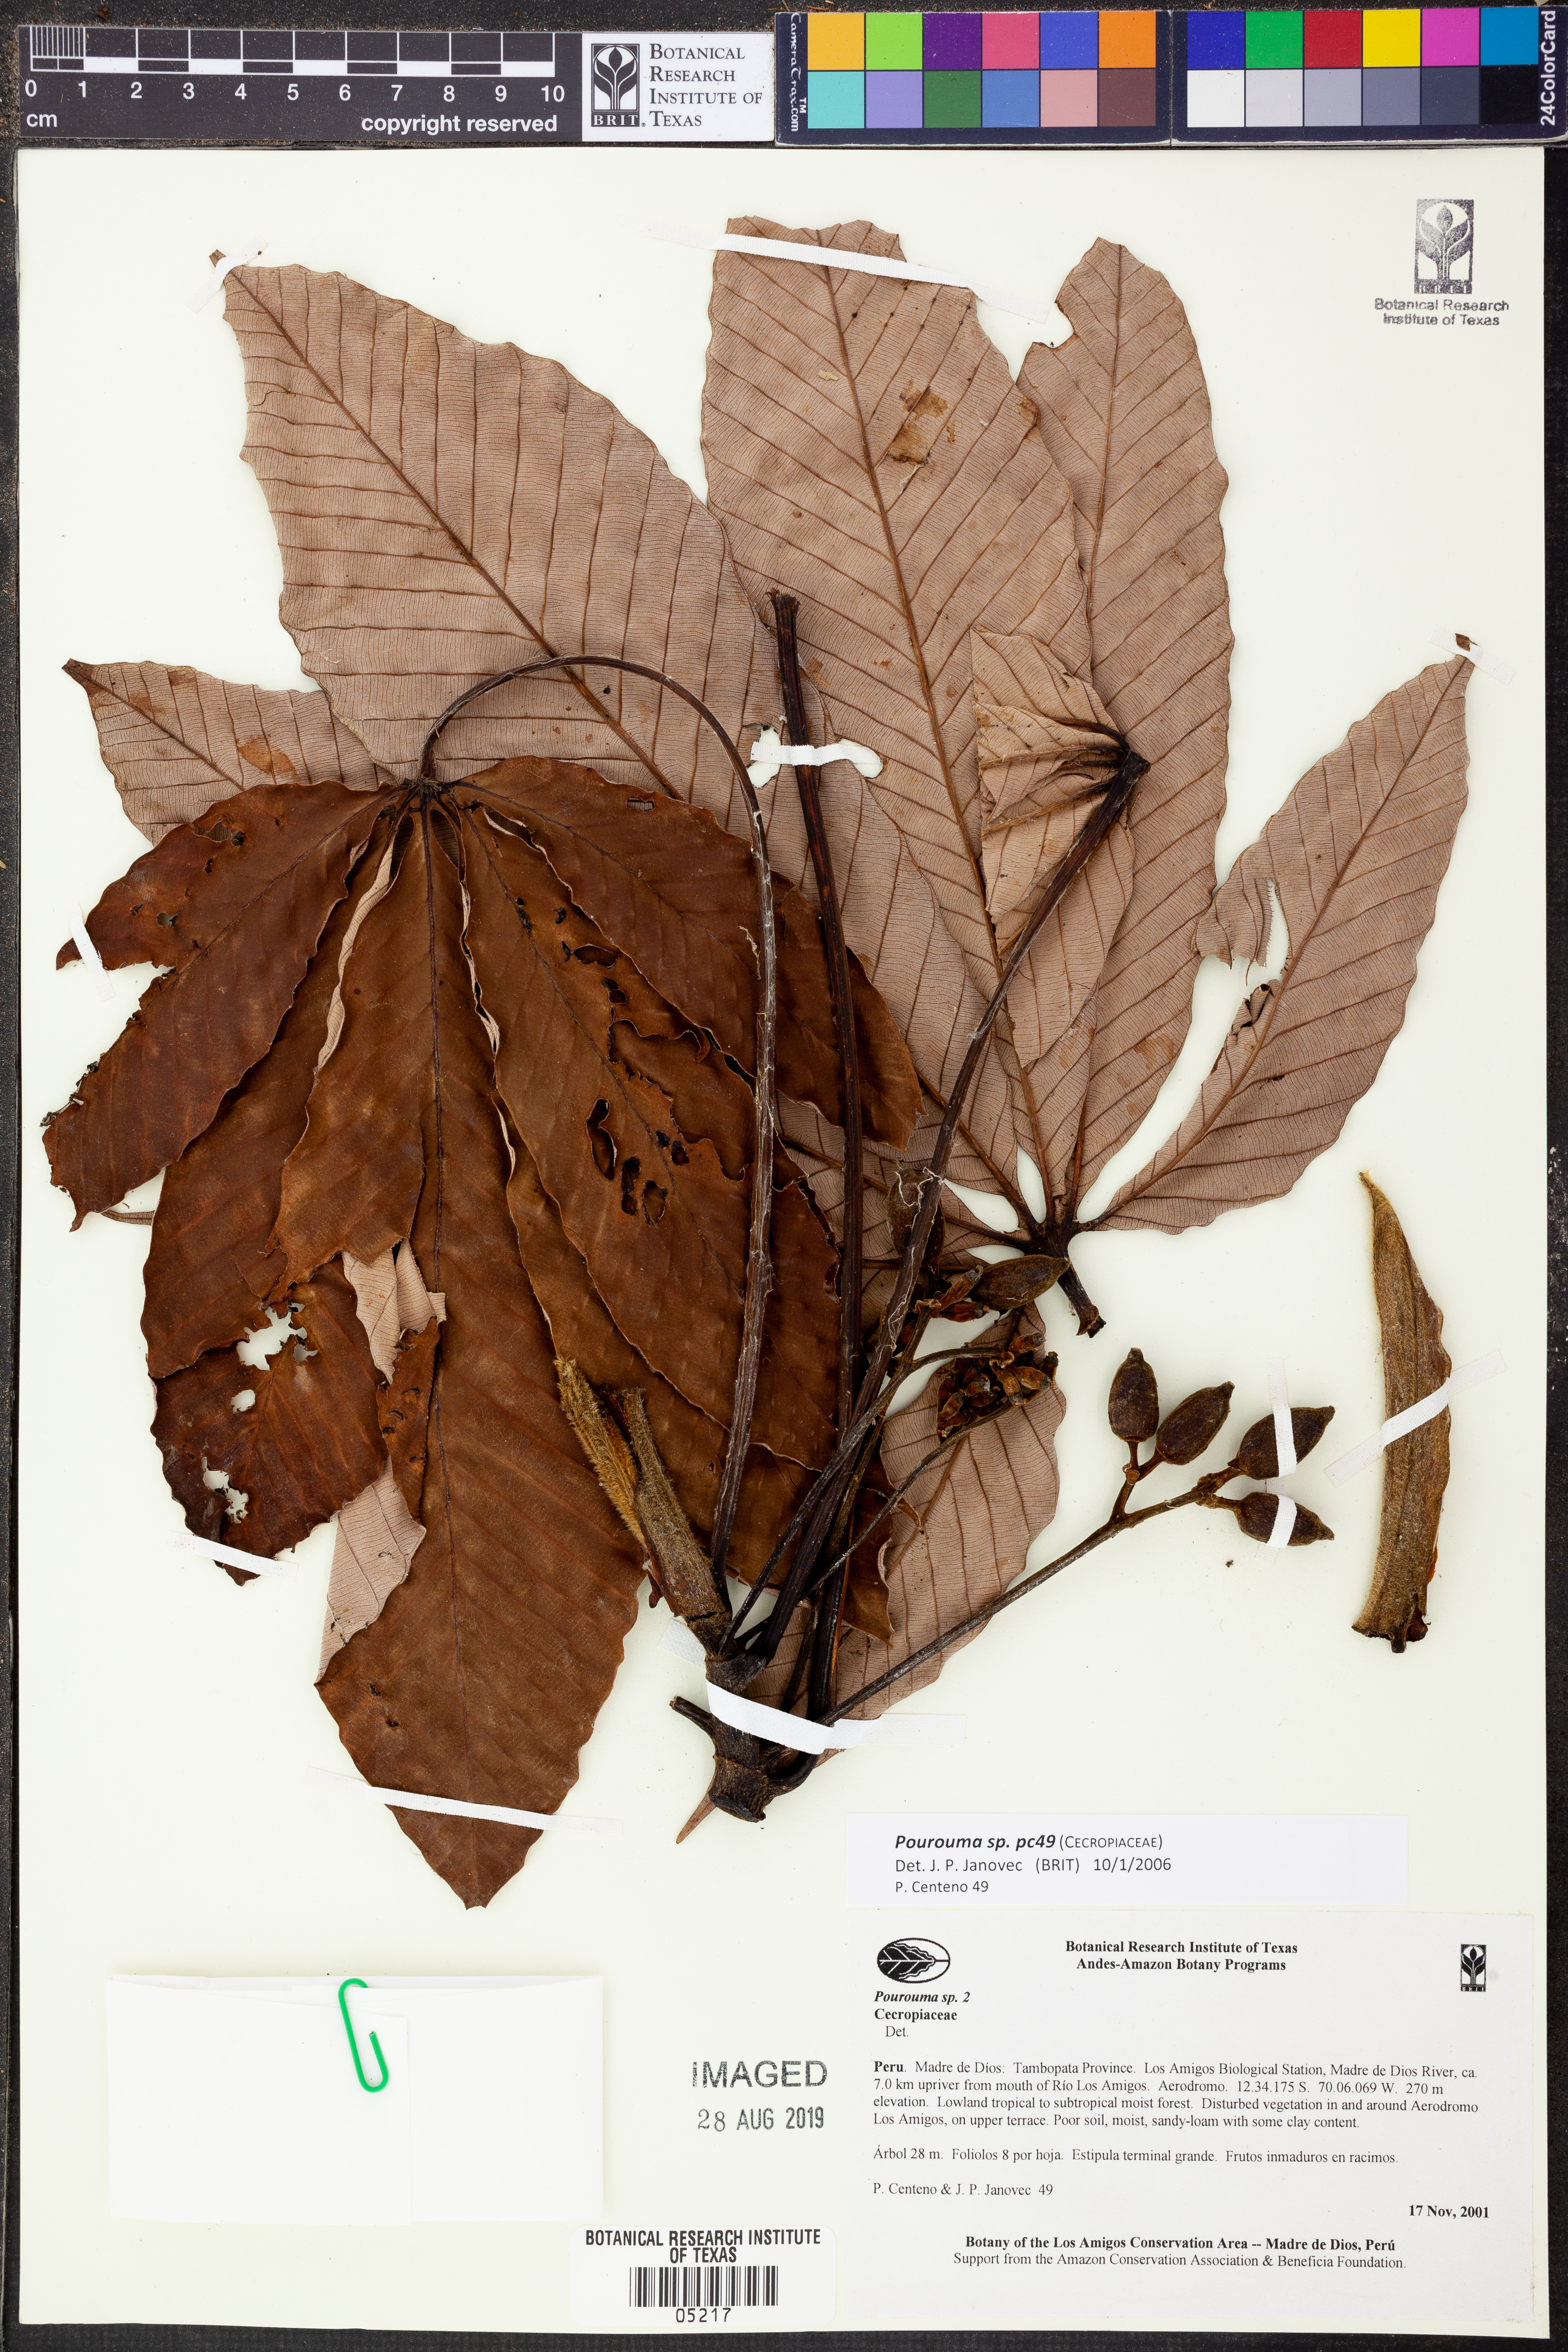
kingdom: Plantae
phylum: Tracheophyta
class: Magnoliopsida
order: Rosales
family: Urticaceae
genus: Pourouma
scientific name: Pourouma
